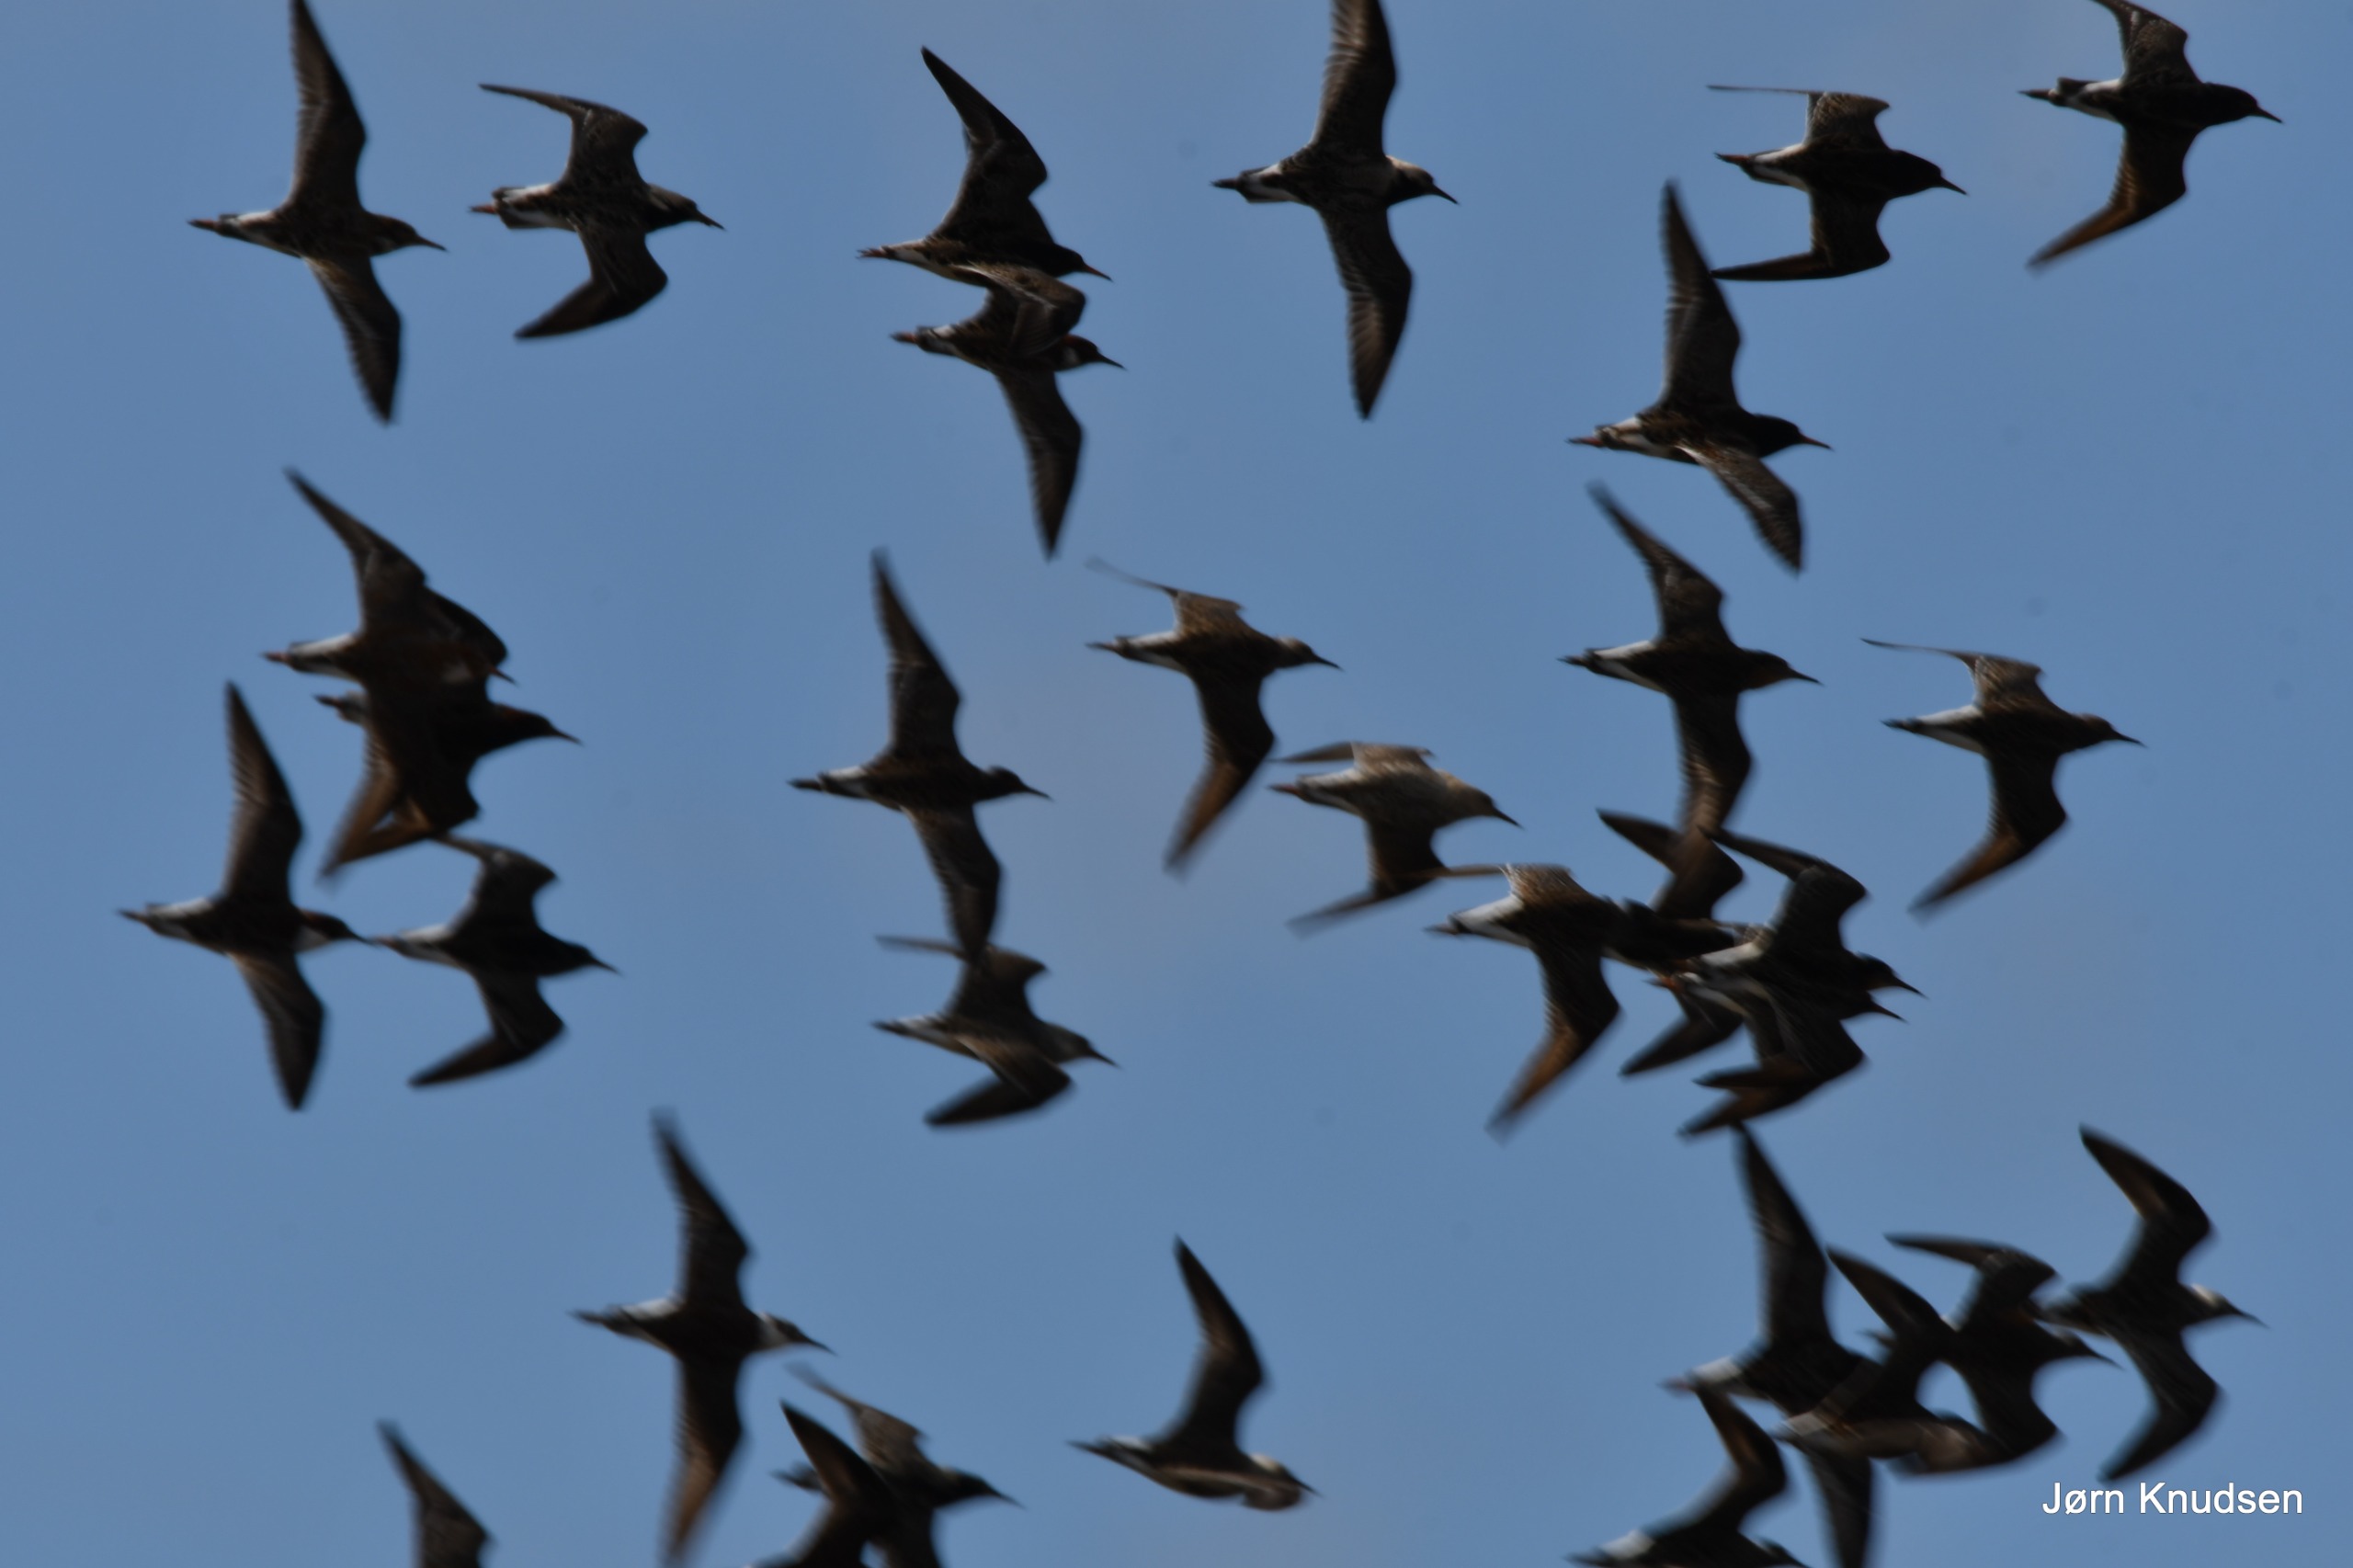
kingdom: Animalia
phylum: Chordata
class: Aves
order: Charadriiformes
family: Scolopacidae
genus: Calidris
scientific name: Calidris pugnax
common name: Brushane
